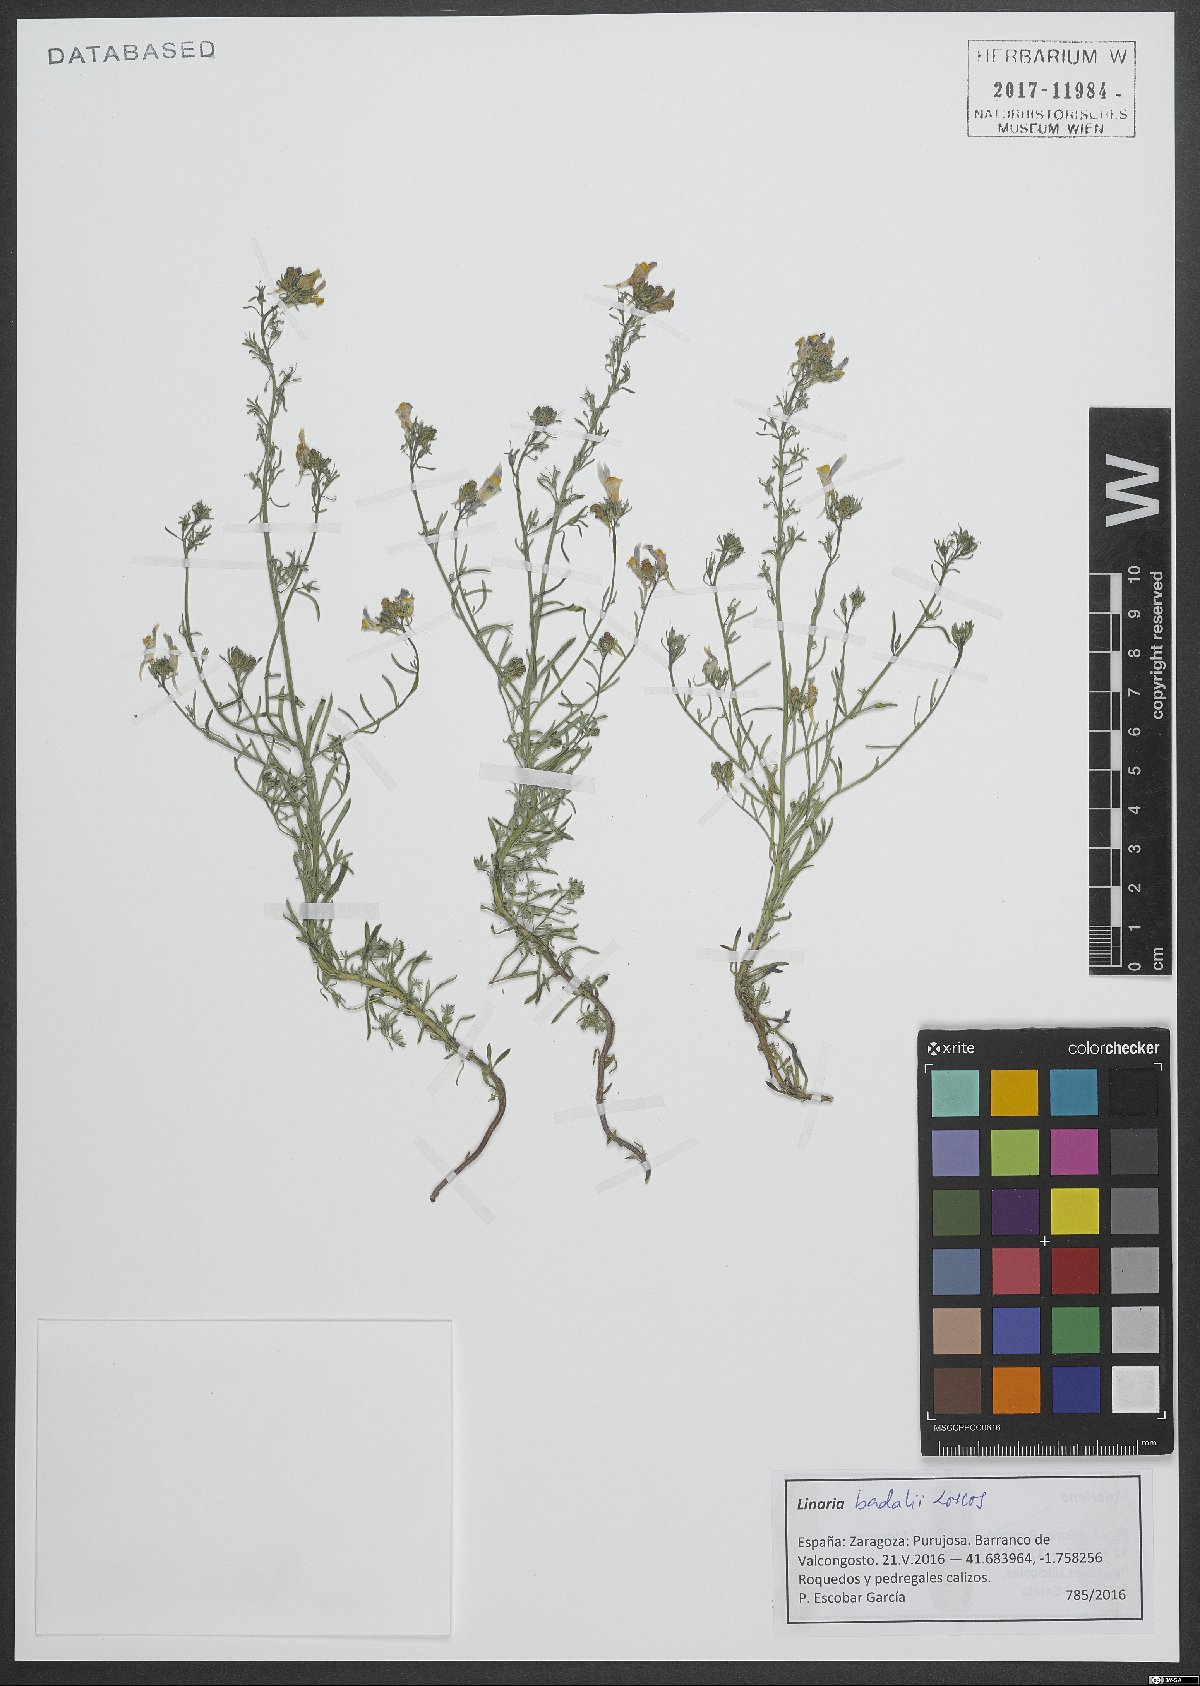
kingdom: Plantae
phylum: Tracheophyta
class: Magnoliopsida
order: Lamiales
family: Scrophulariaceae
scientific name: Scrophulariaceae
